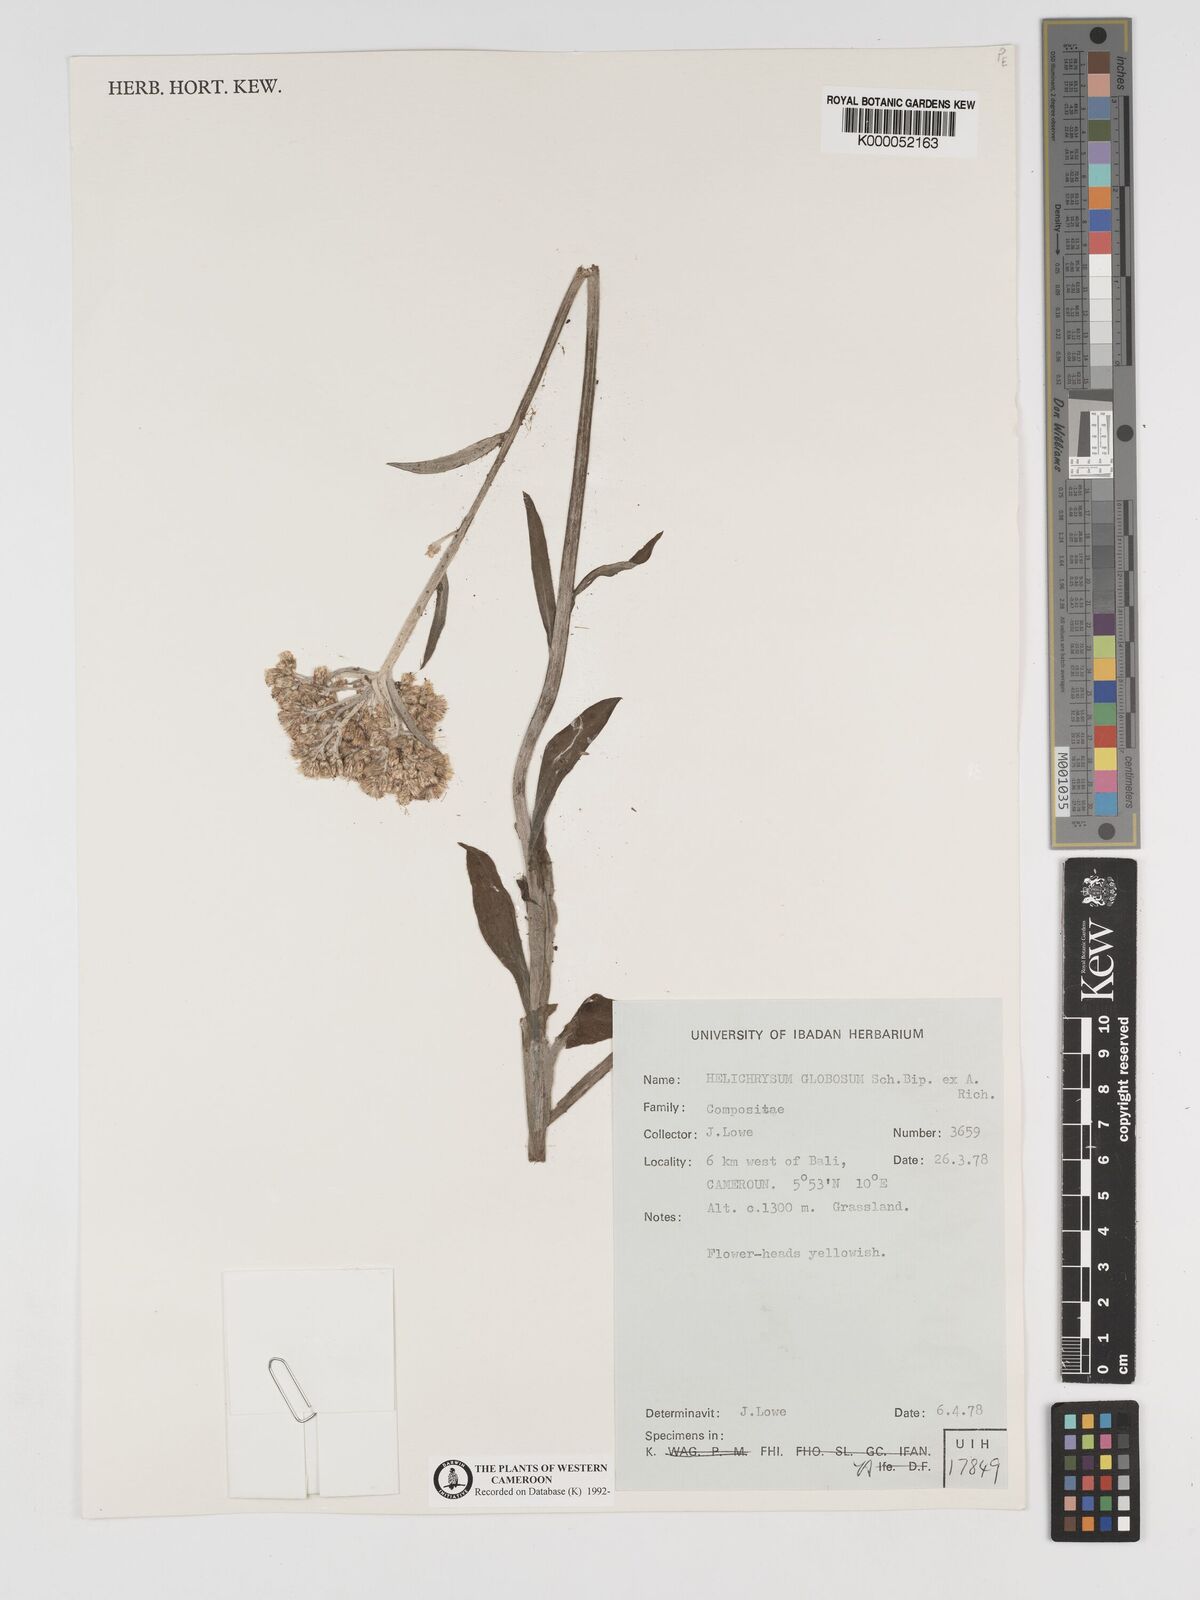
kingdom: Plantae
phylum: Tracheophyta
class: Magnoliopsida
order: Asterales
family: Asteraceae
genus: Helichrysum
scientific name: Helichrysum
